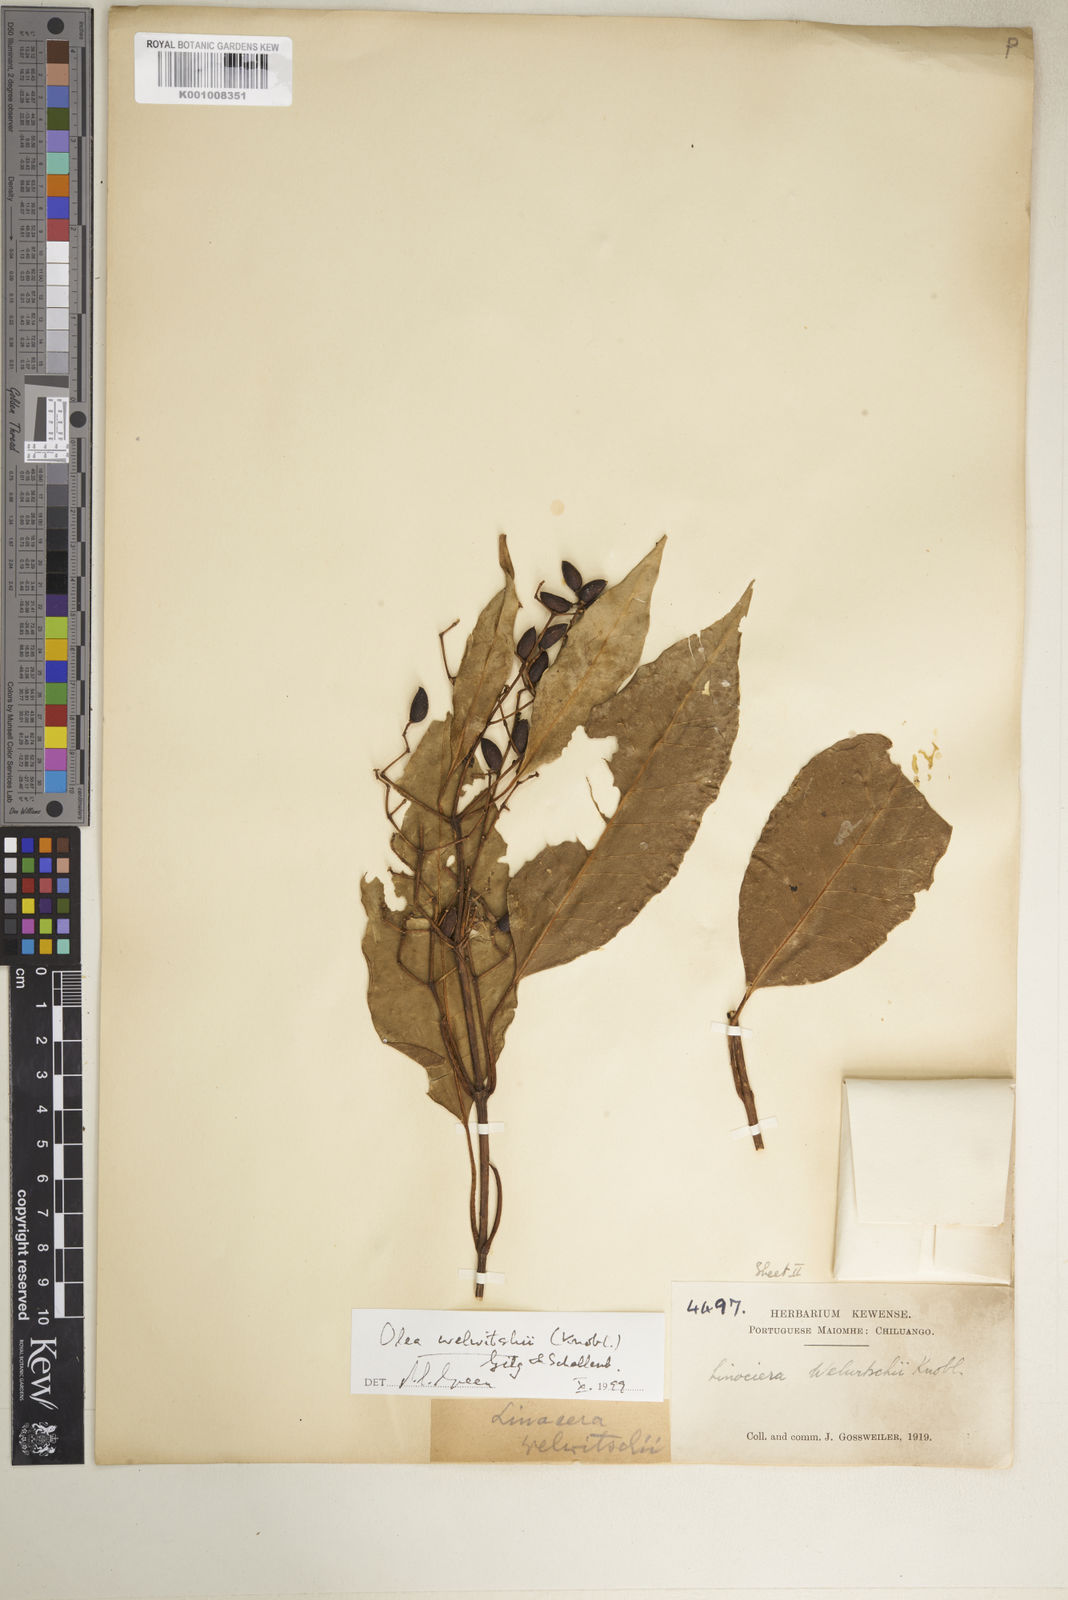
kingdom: Plantae
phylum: Tracheophyta
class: Magnoliopsida
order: Lamiales
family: Oleaceae
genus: Olea
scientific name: Olea welwitschii
